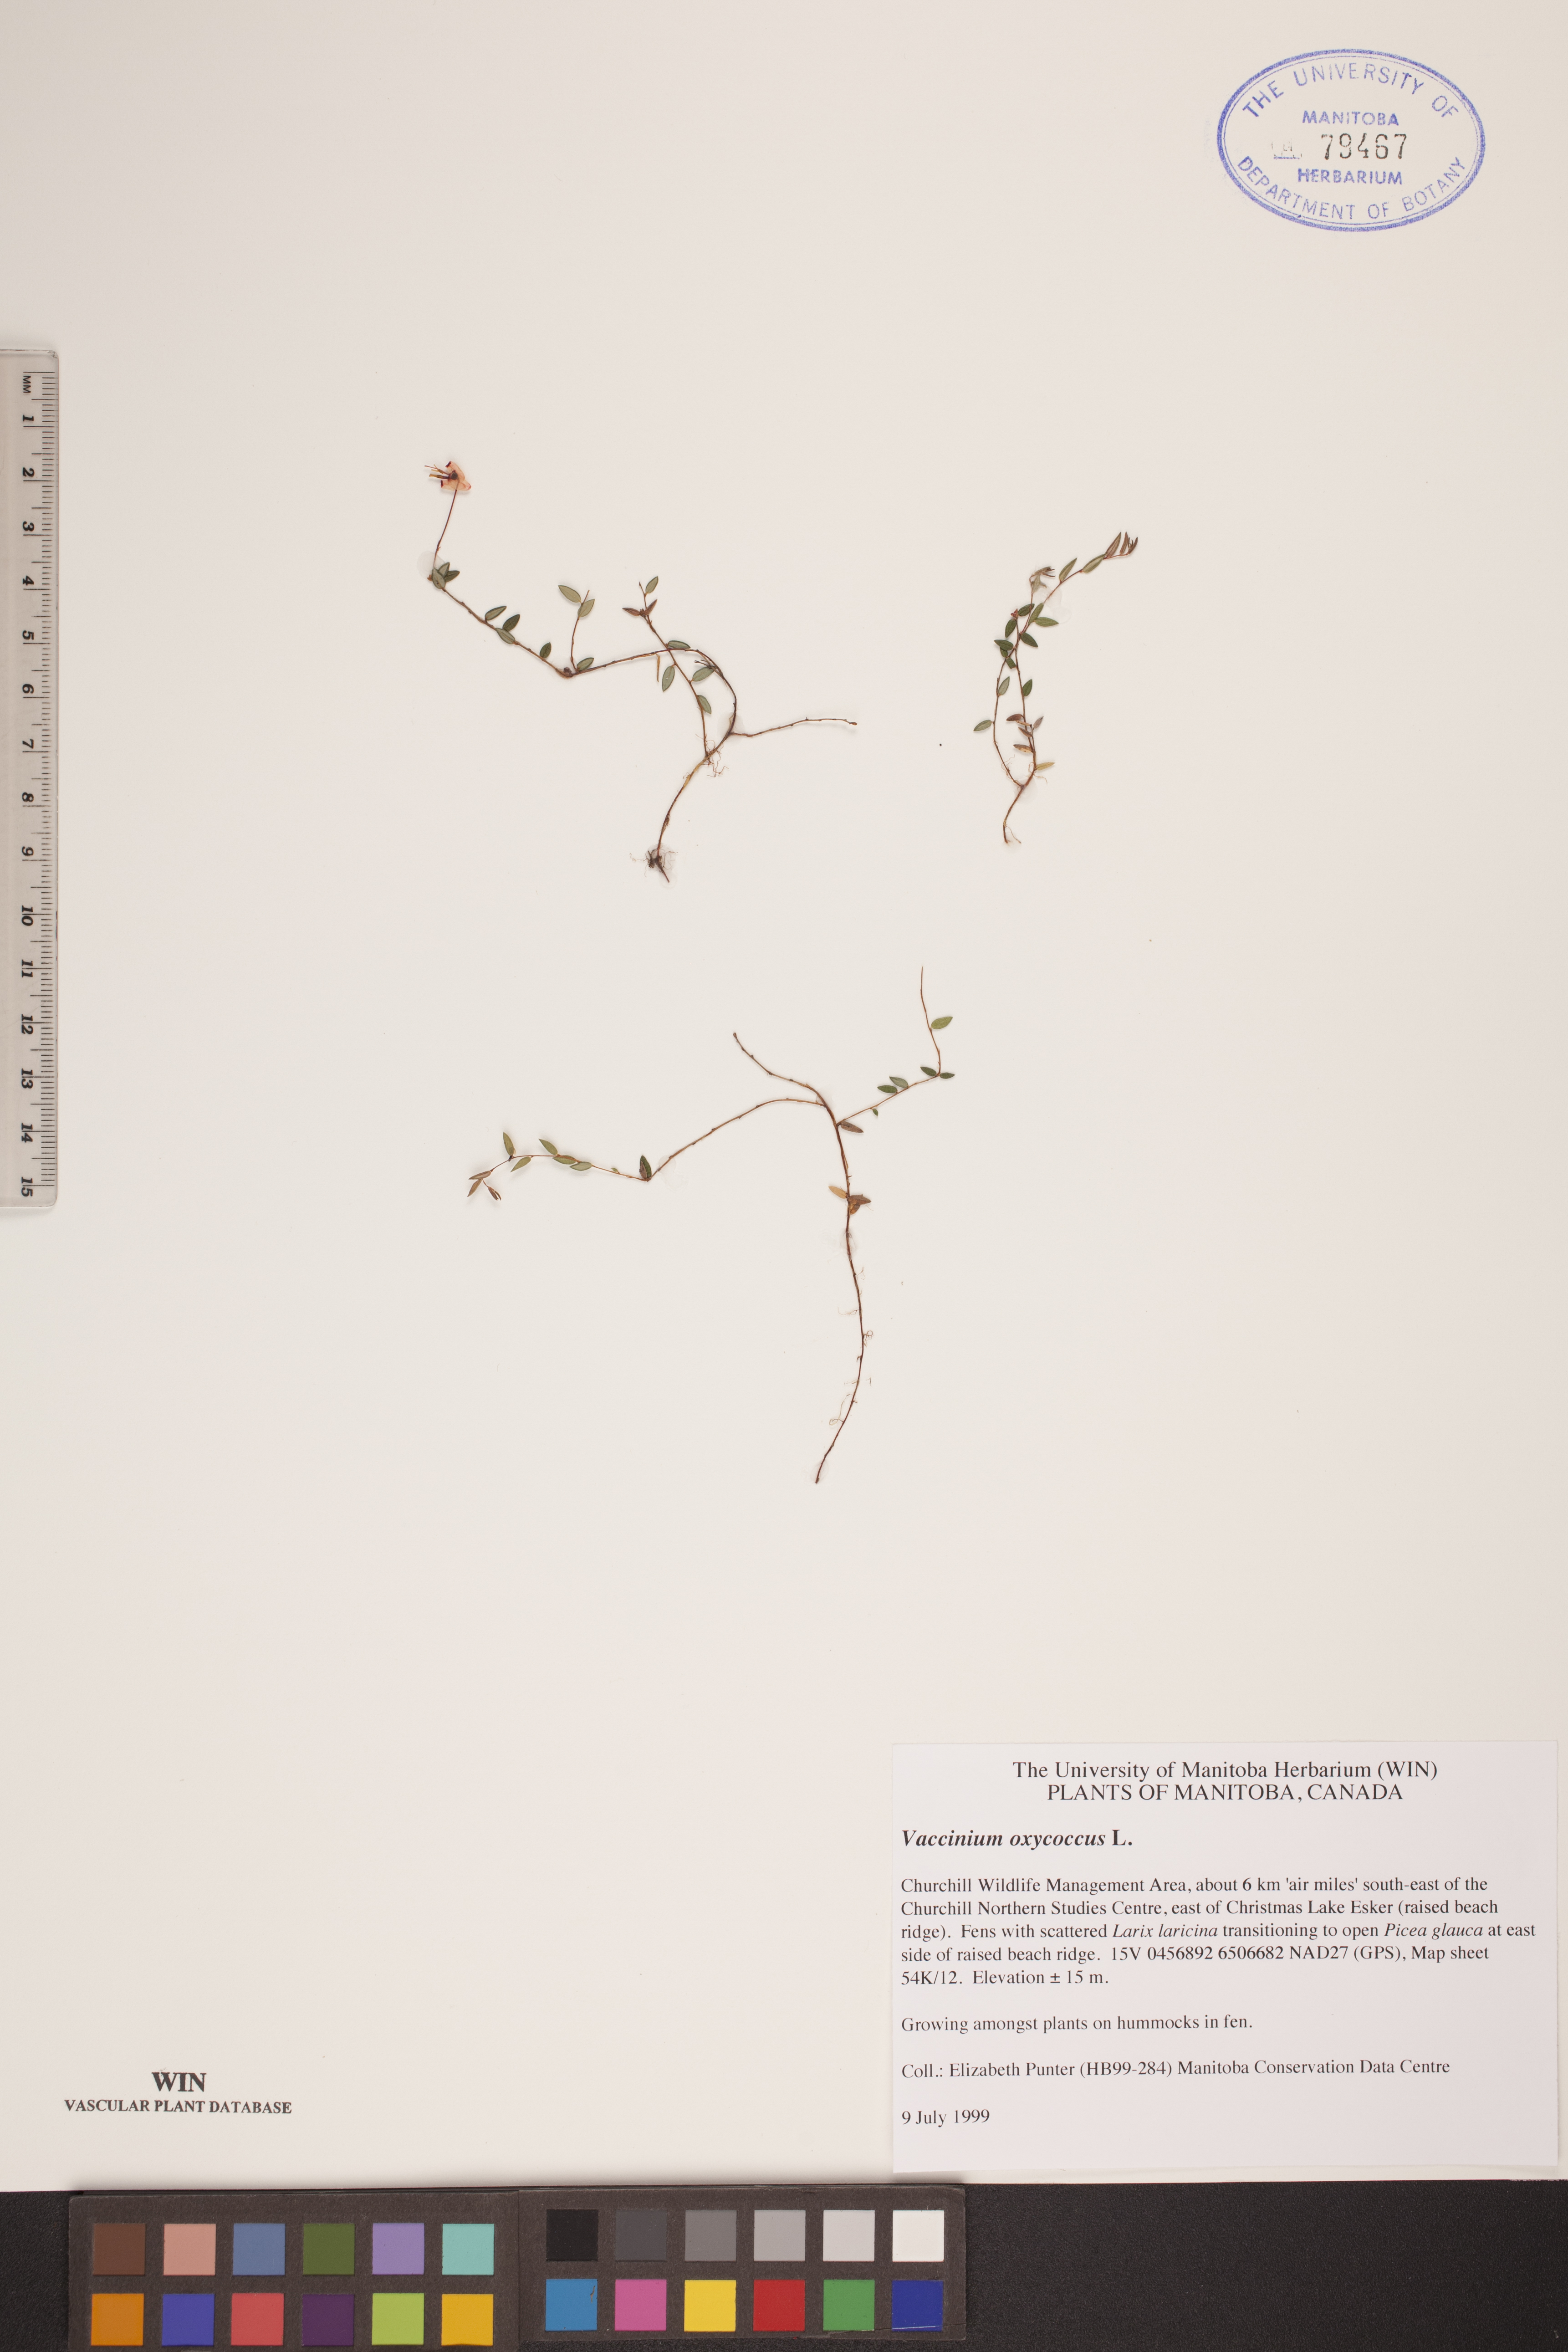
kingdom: Plantae
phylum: Tracheophyta
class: Magnoliopsida
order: Ericales
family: Ericaceae
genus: Vaccinium
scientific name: Vaccinium oxycoccos
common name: Cranberry
